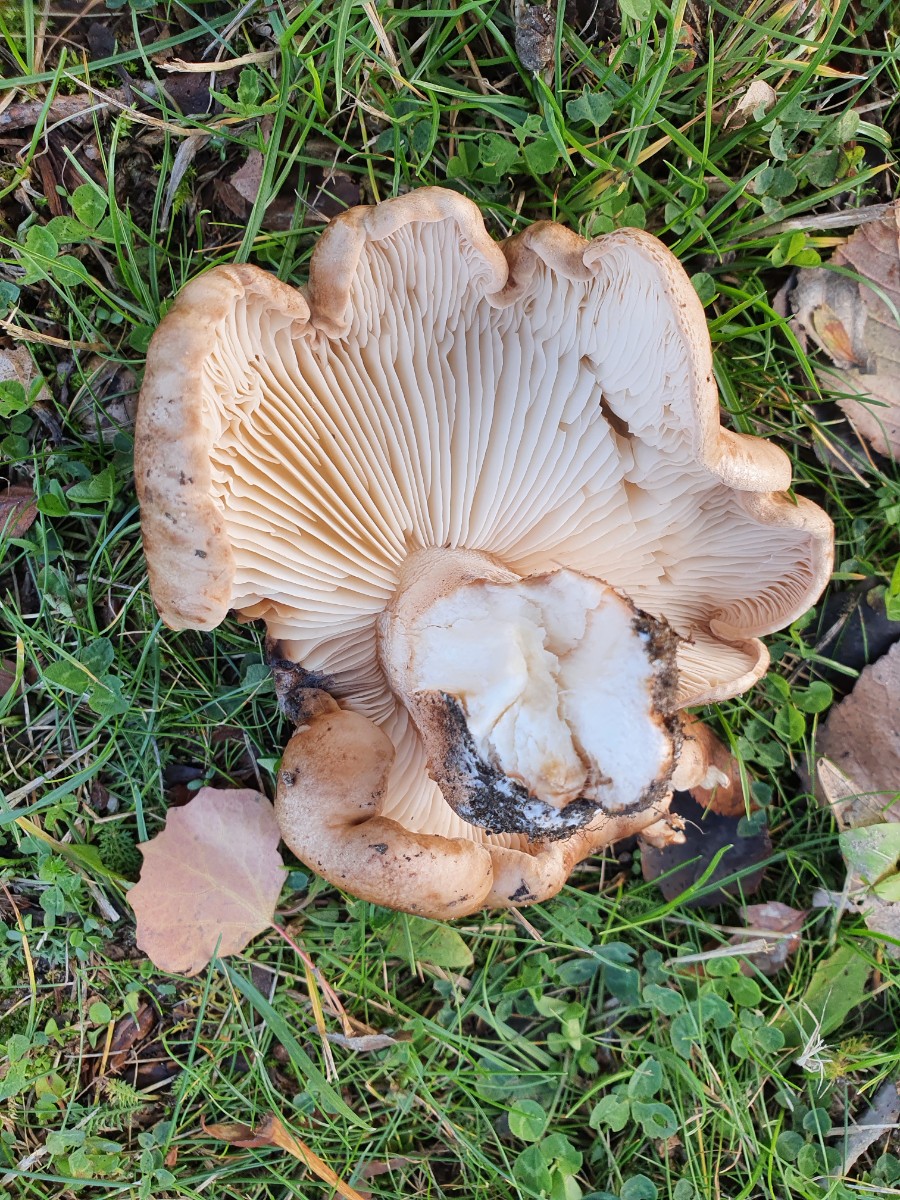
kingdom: Fungi
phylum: Basidiomycota
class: Agaricomycetes
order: Agaricales
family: Tricholomataceae
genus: Tricholoma
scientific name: Tricholoma populinum
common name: poppel-ridderhat
